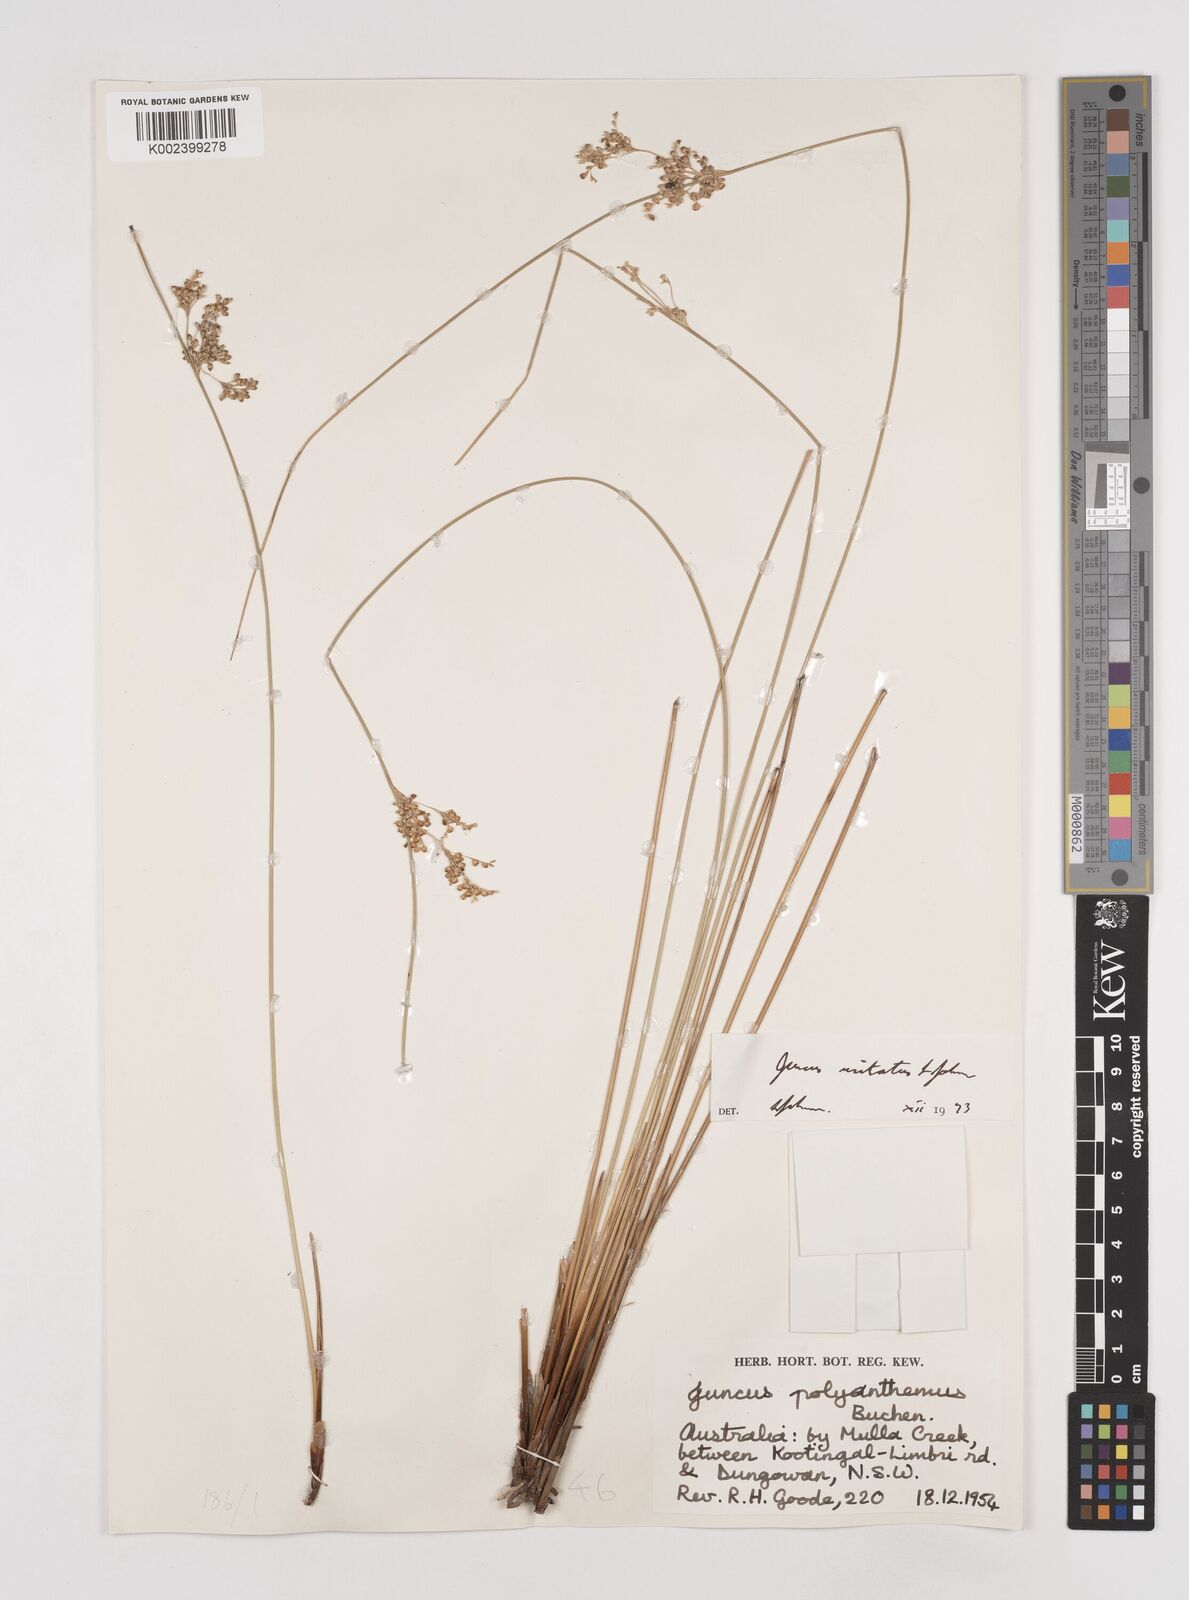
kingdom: Plantae
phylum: Tracheophyta
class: Liliopsida
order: Poales
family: Juncaceae
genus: Juncus
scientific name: Juncus usitatus
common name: Rush
